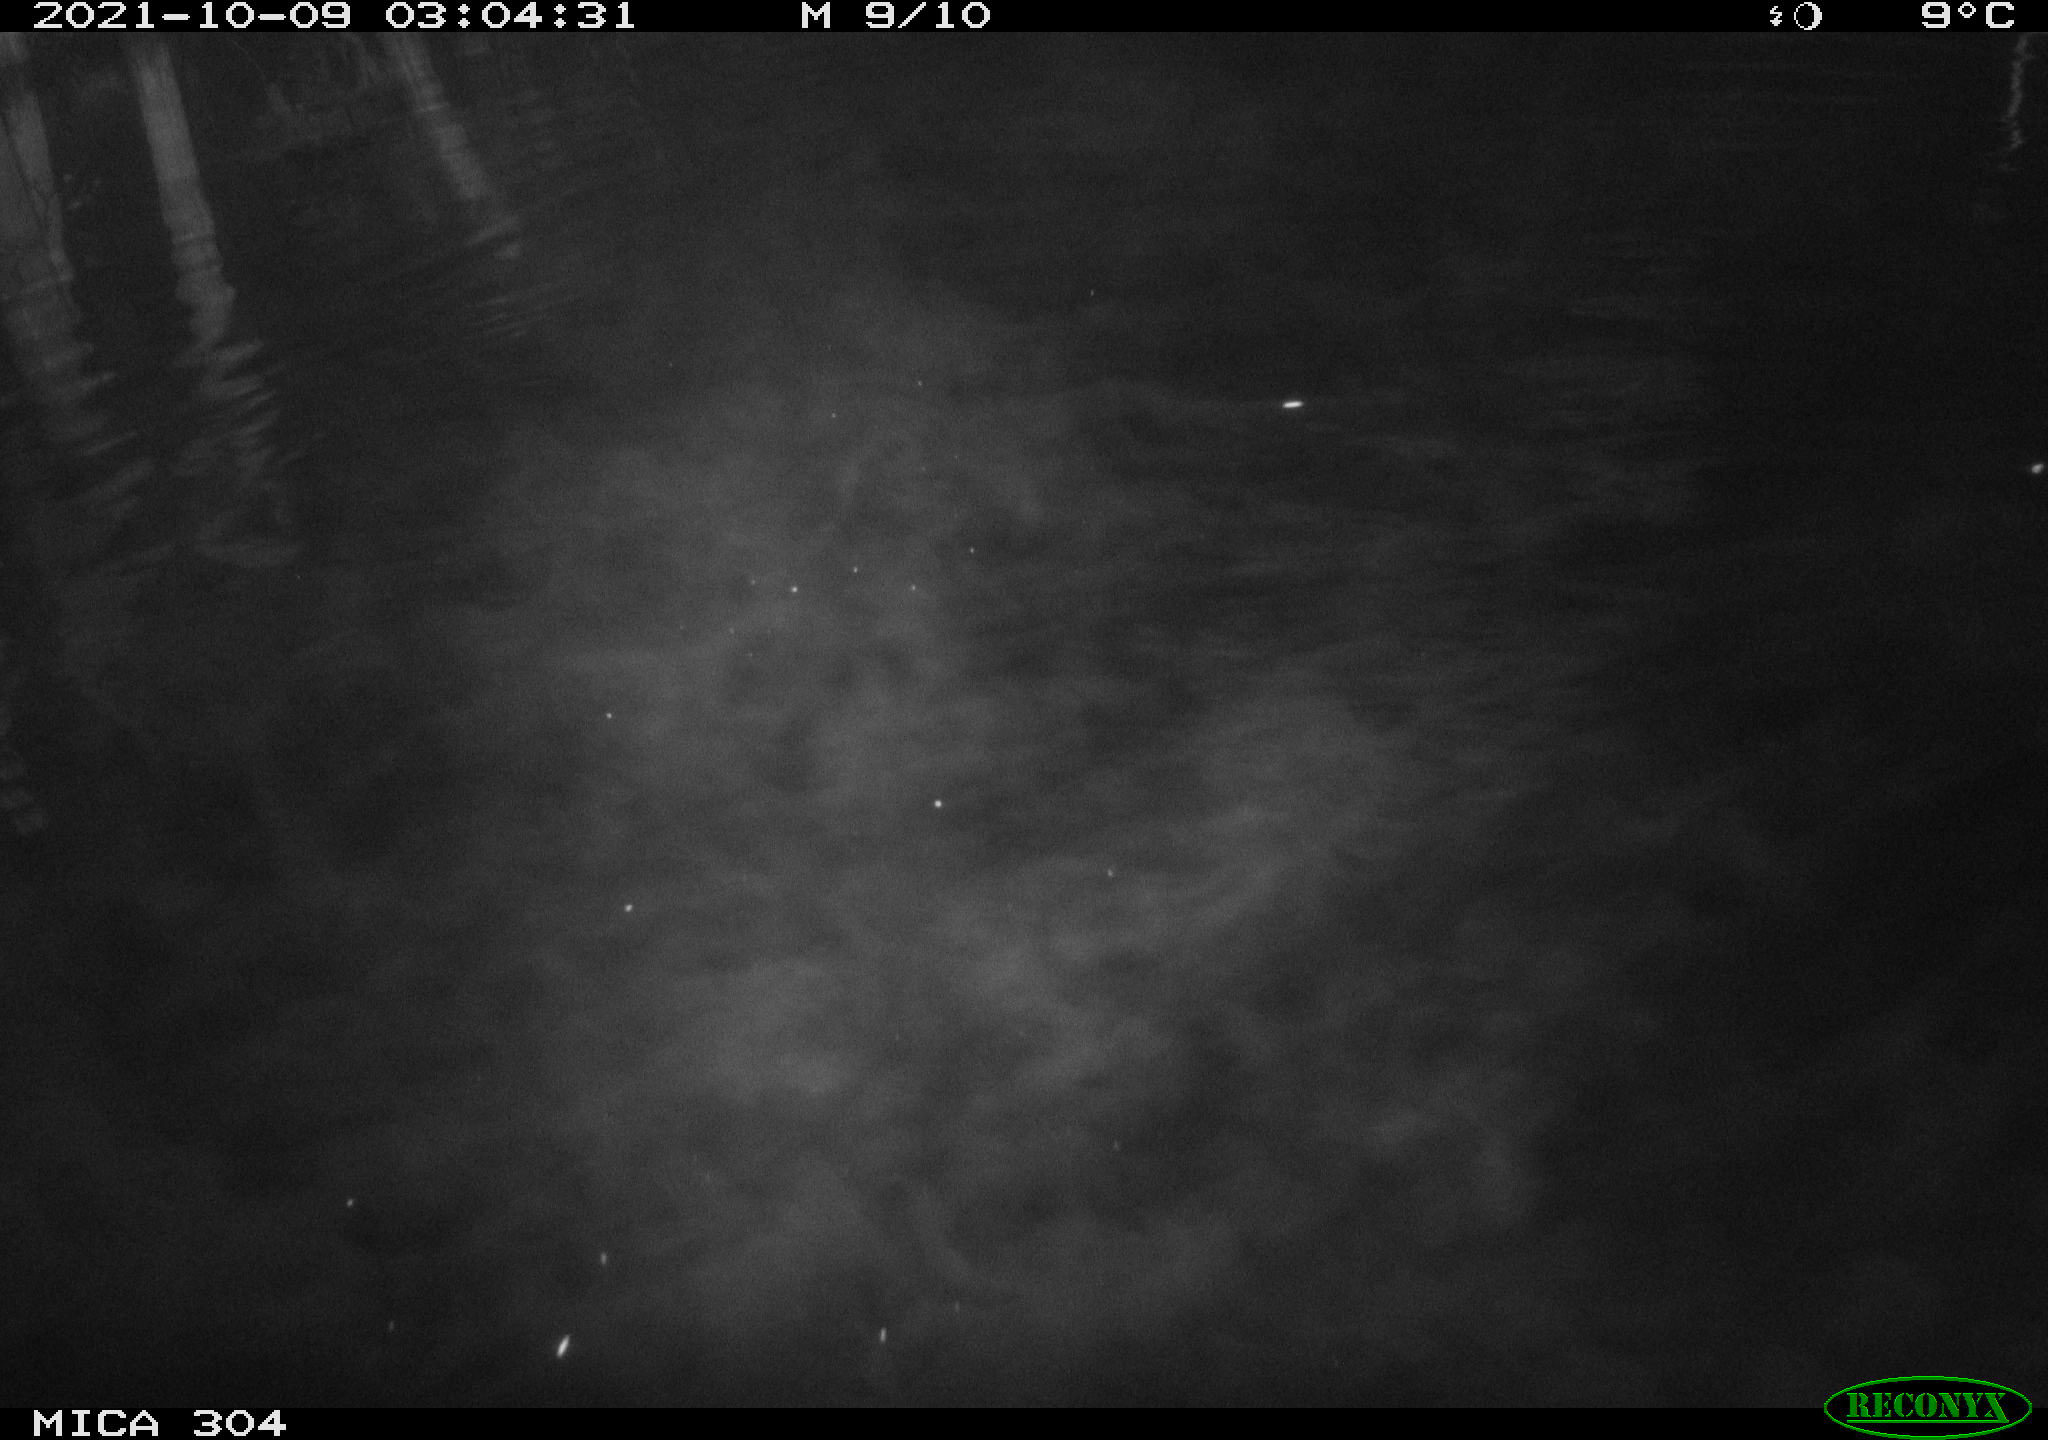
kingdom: Animalia
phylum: Chordata
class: Mammalia
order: Rodentia
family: Cricetidae
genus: Ondatra
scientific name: Ondatra zibethicus
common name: Muskrat
